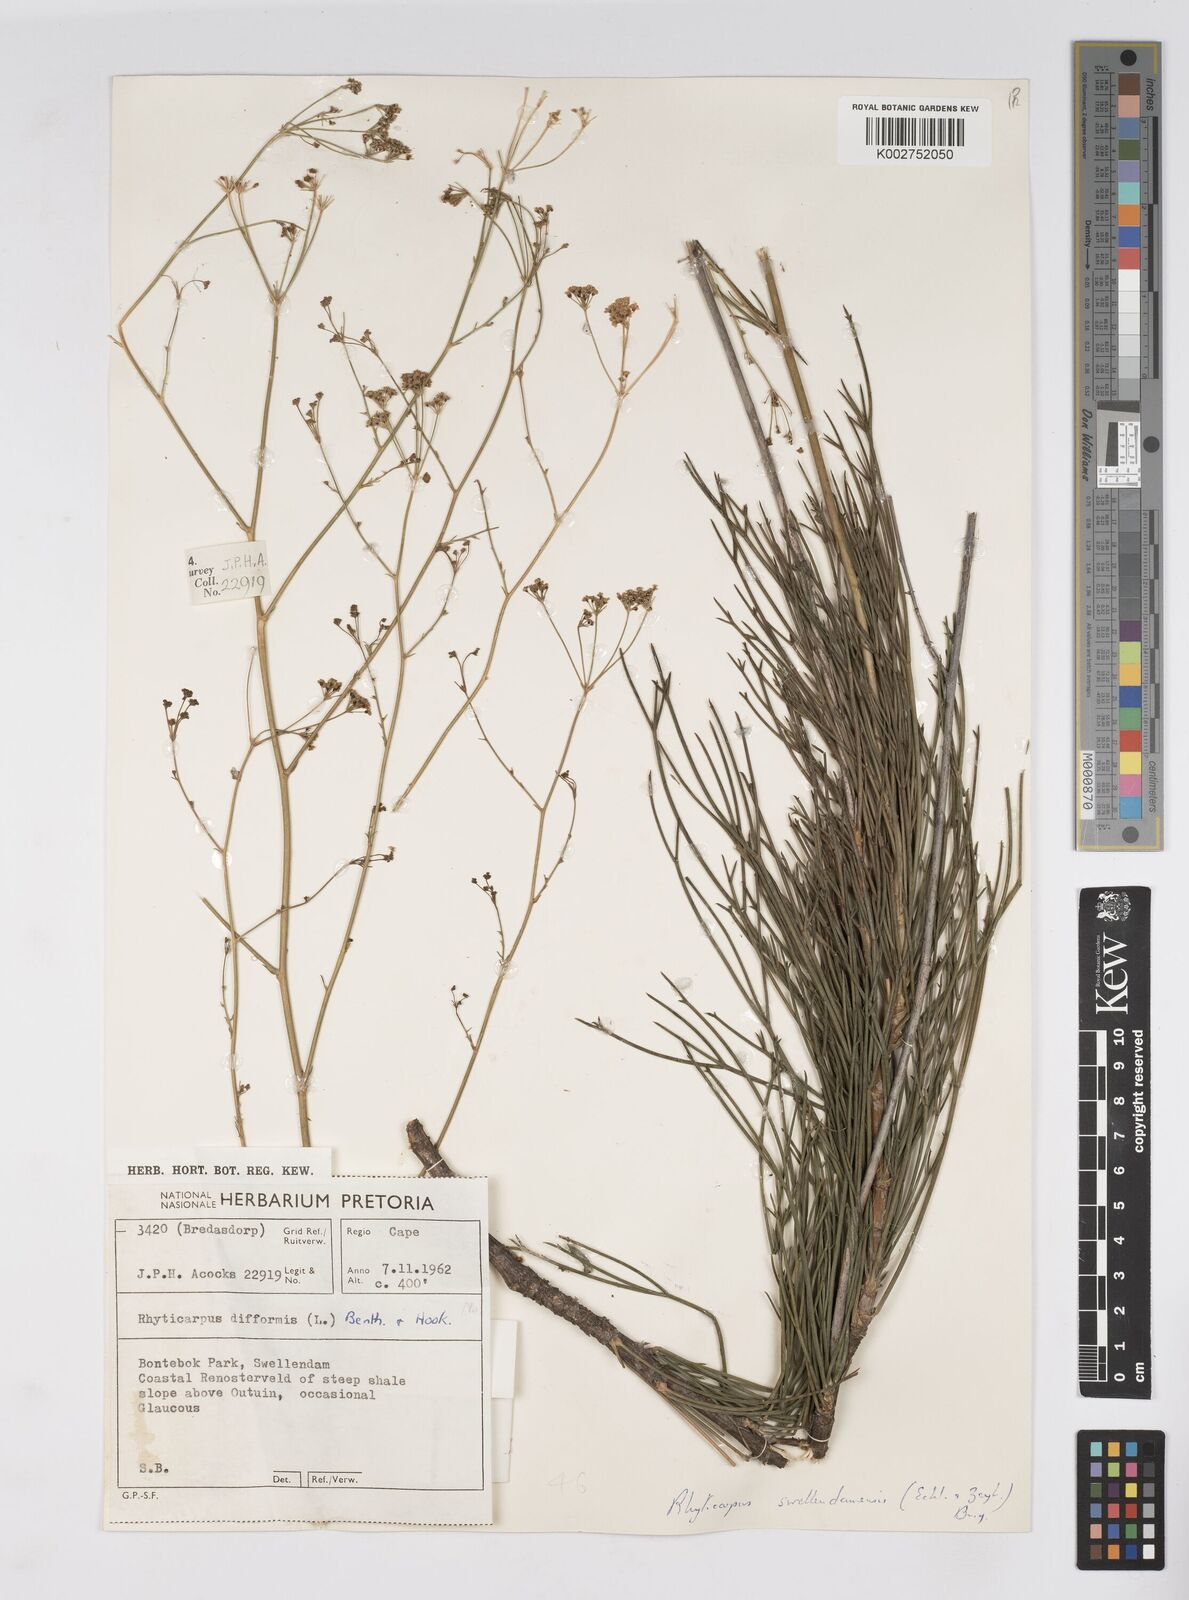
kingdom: Plantae
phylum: Tracheophyta
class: Magnoliopsida
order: Apiales
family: Apiaceae
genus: Anginon
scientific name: Anginon fruticosum
